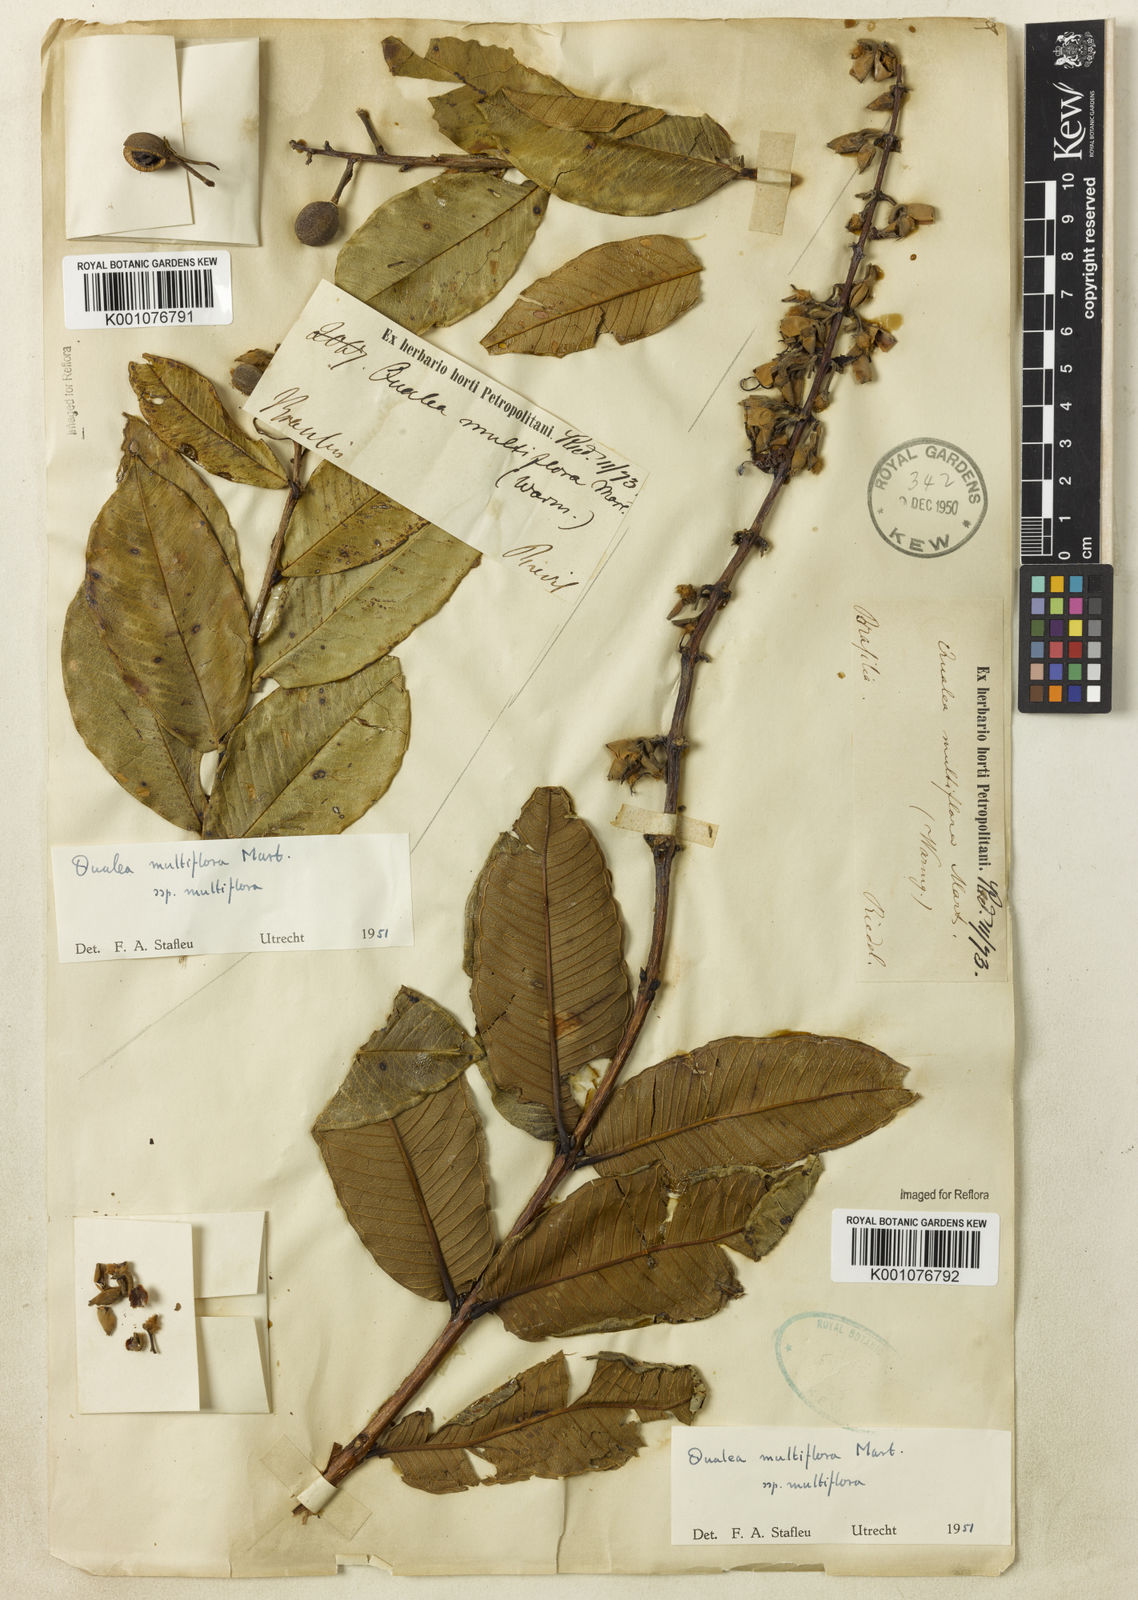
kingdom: Plantae
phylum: Tracheophyta
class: Magnoliopsida
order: Myrtales
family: Vochysiaceae
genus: Qualea
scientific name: Qualea multiflora
